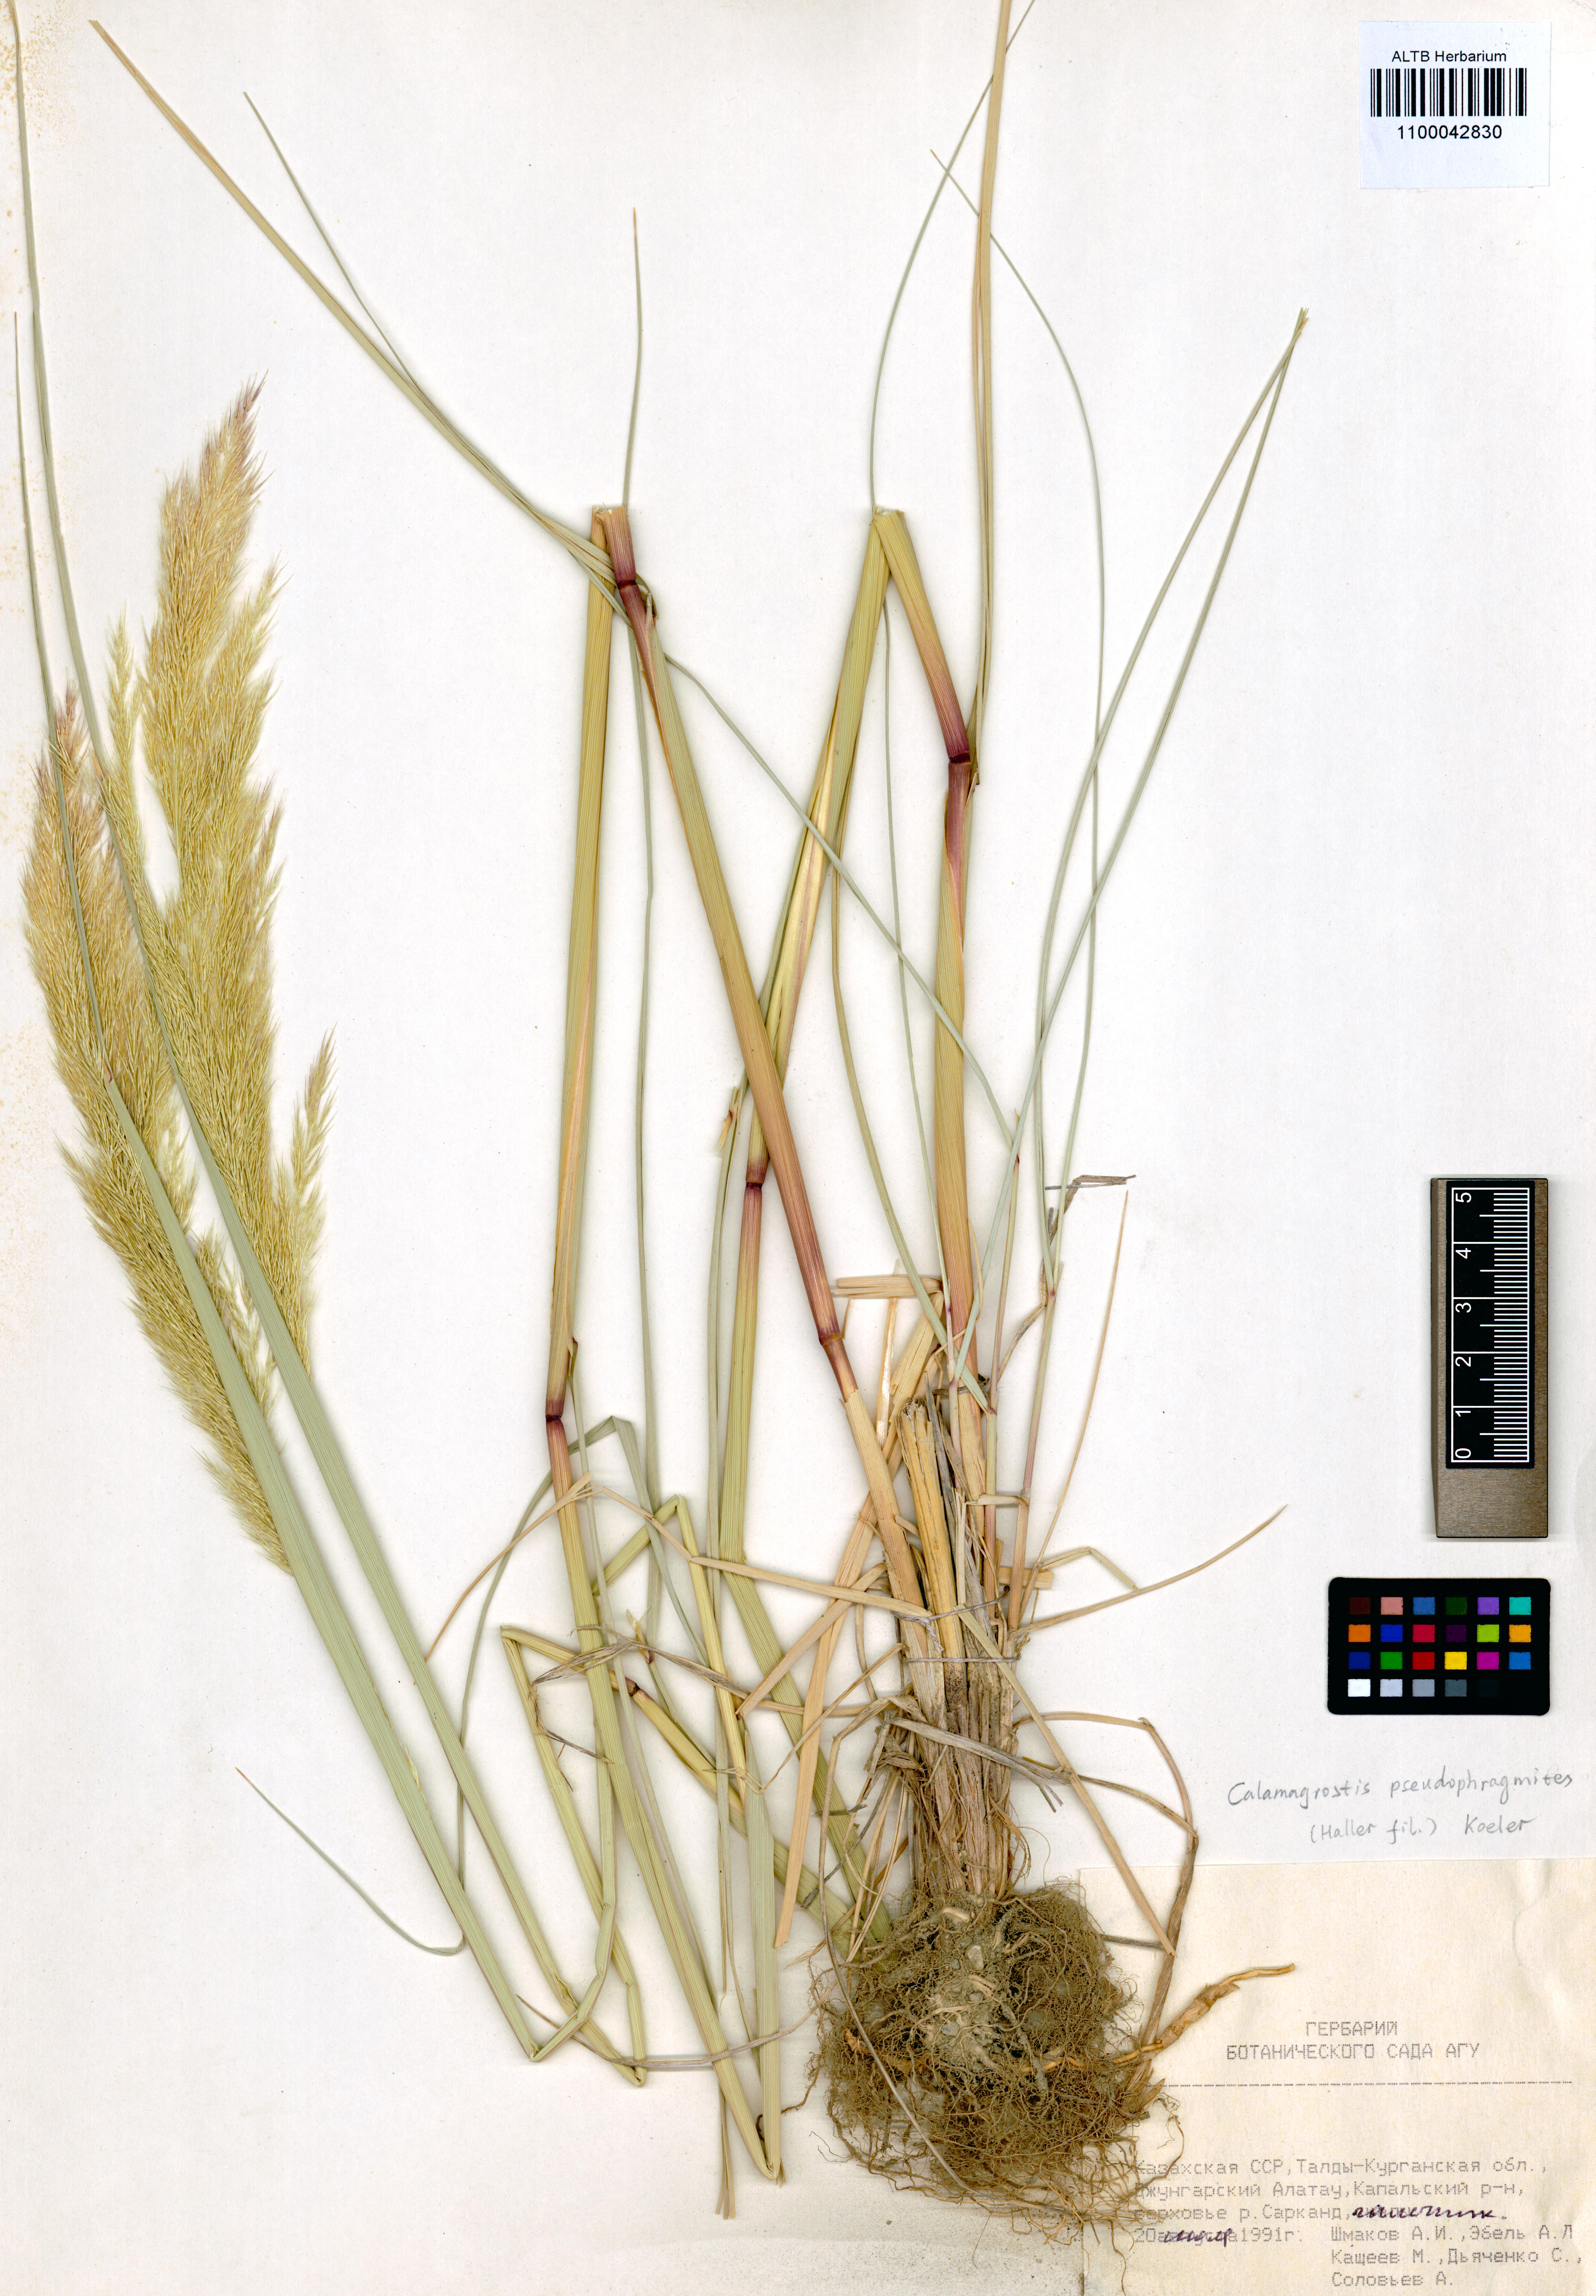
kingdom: Plantae
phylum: Tracheophyta
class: Liliopsida
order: Poales
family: Poaceae
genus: Calamagrostis
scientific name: Calamagrostis pseudophragmites
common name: Coastal small-reed
